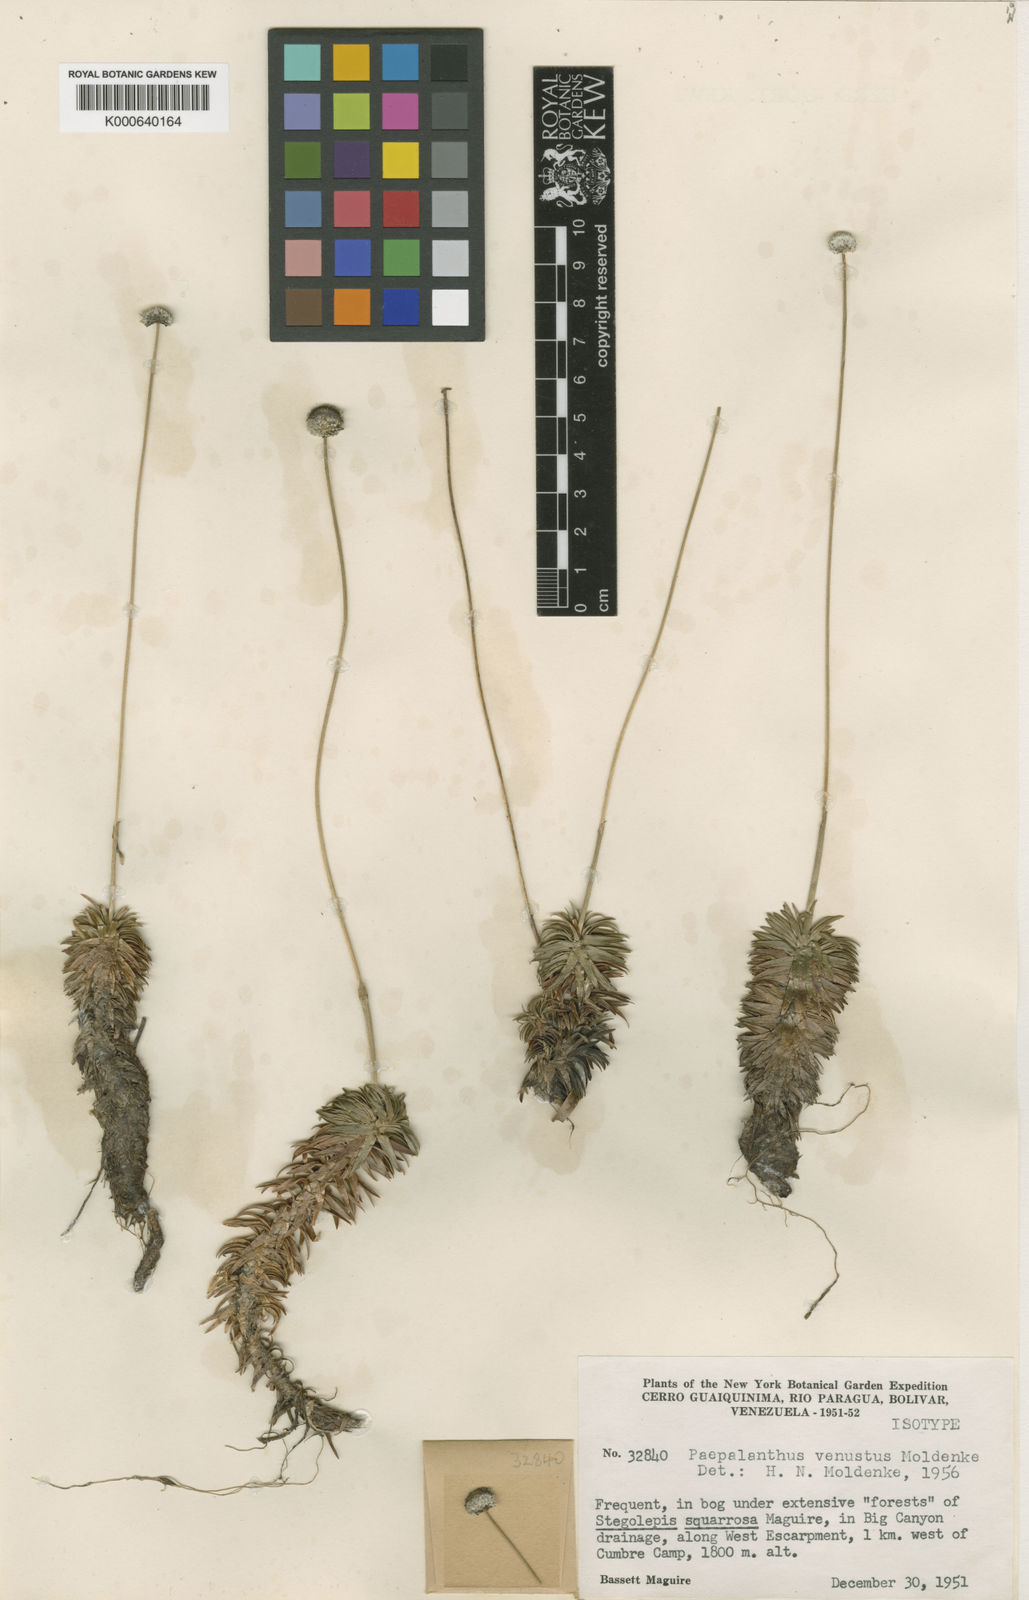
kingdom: Plantae
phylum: Tracheophyta
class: Liliopsida
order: Poales
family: Eriocaulaceae
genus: Paepalanthus
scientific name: Paepalanthus venustus
